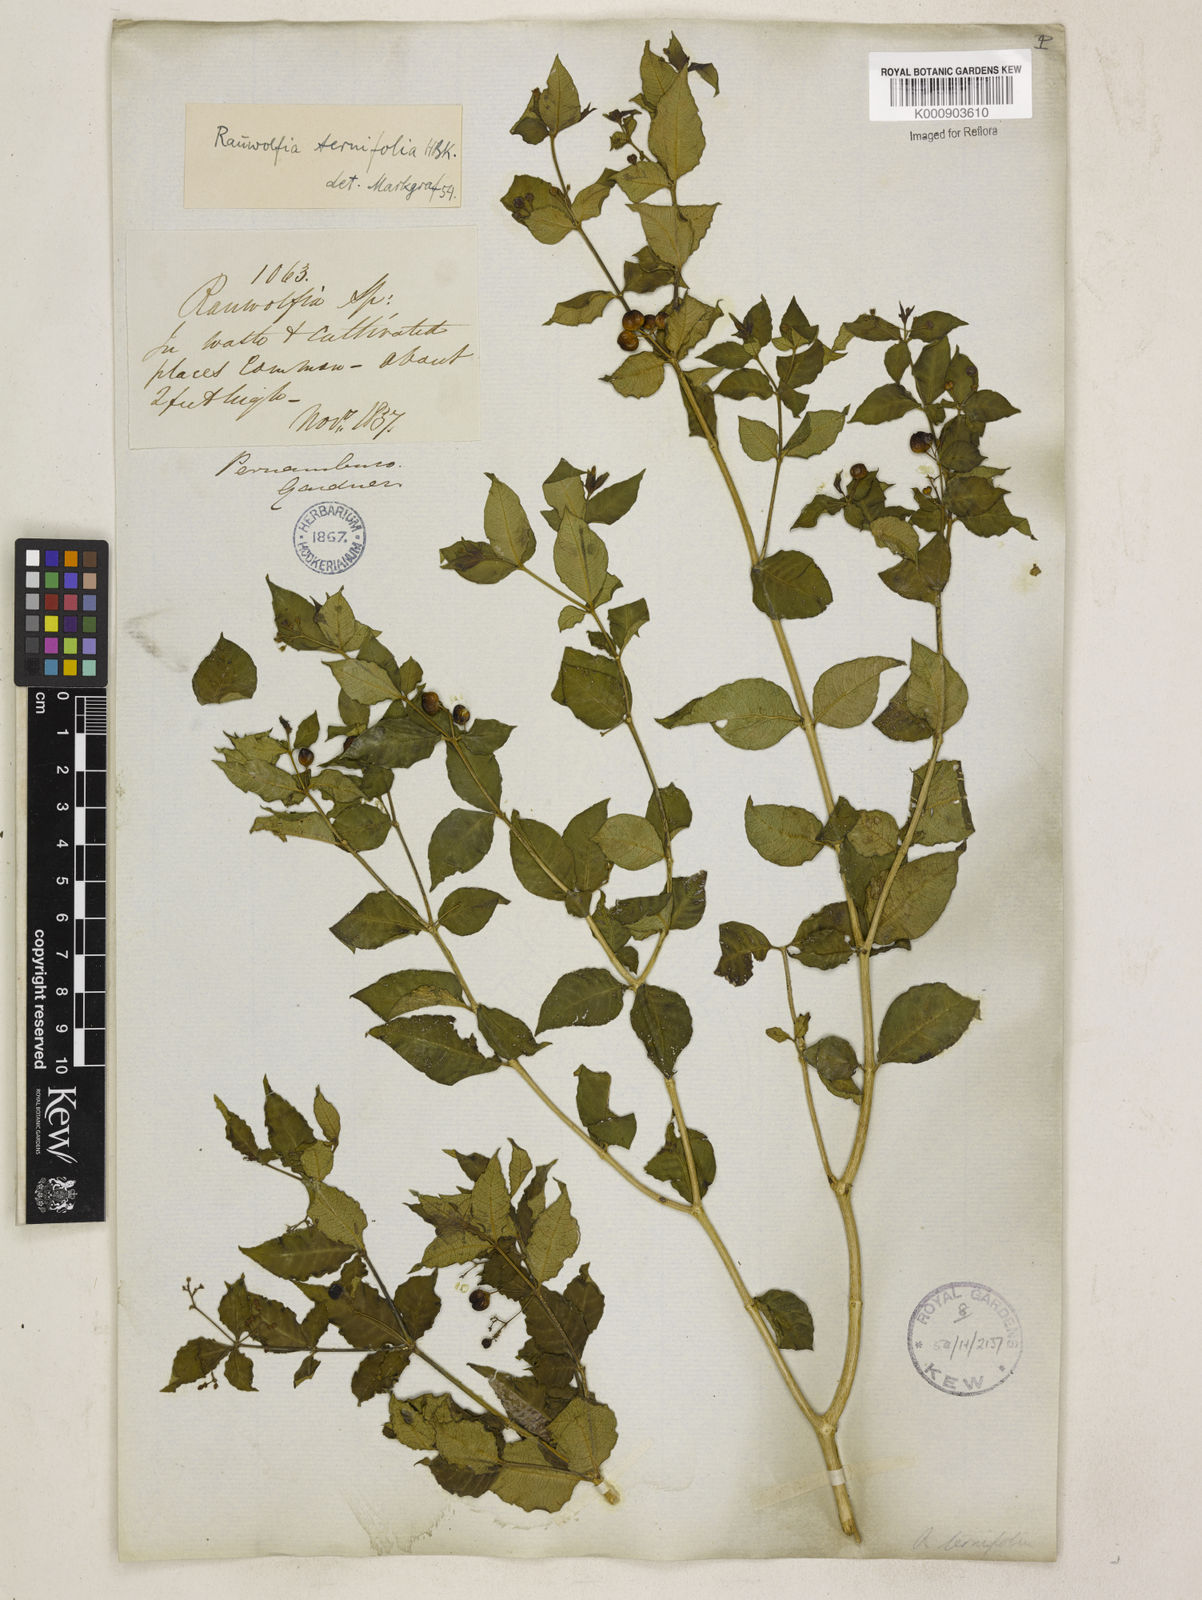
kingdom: Plantae
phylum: Tracheophyta
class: Magnoliopsida
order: Gentianales
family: Apocynaceae
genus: Rauvolfia
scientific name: Rauvolfia
